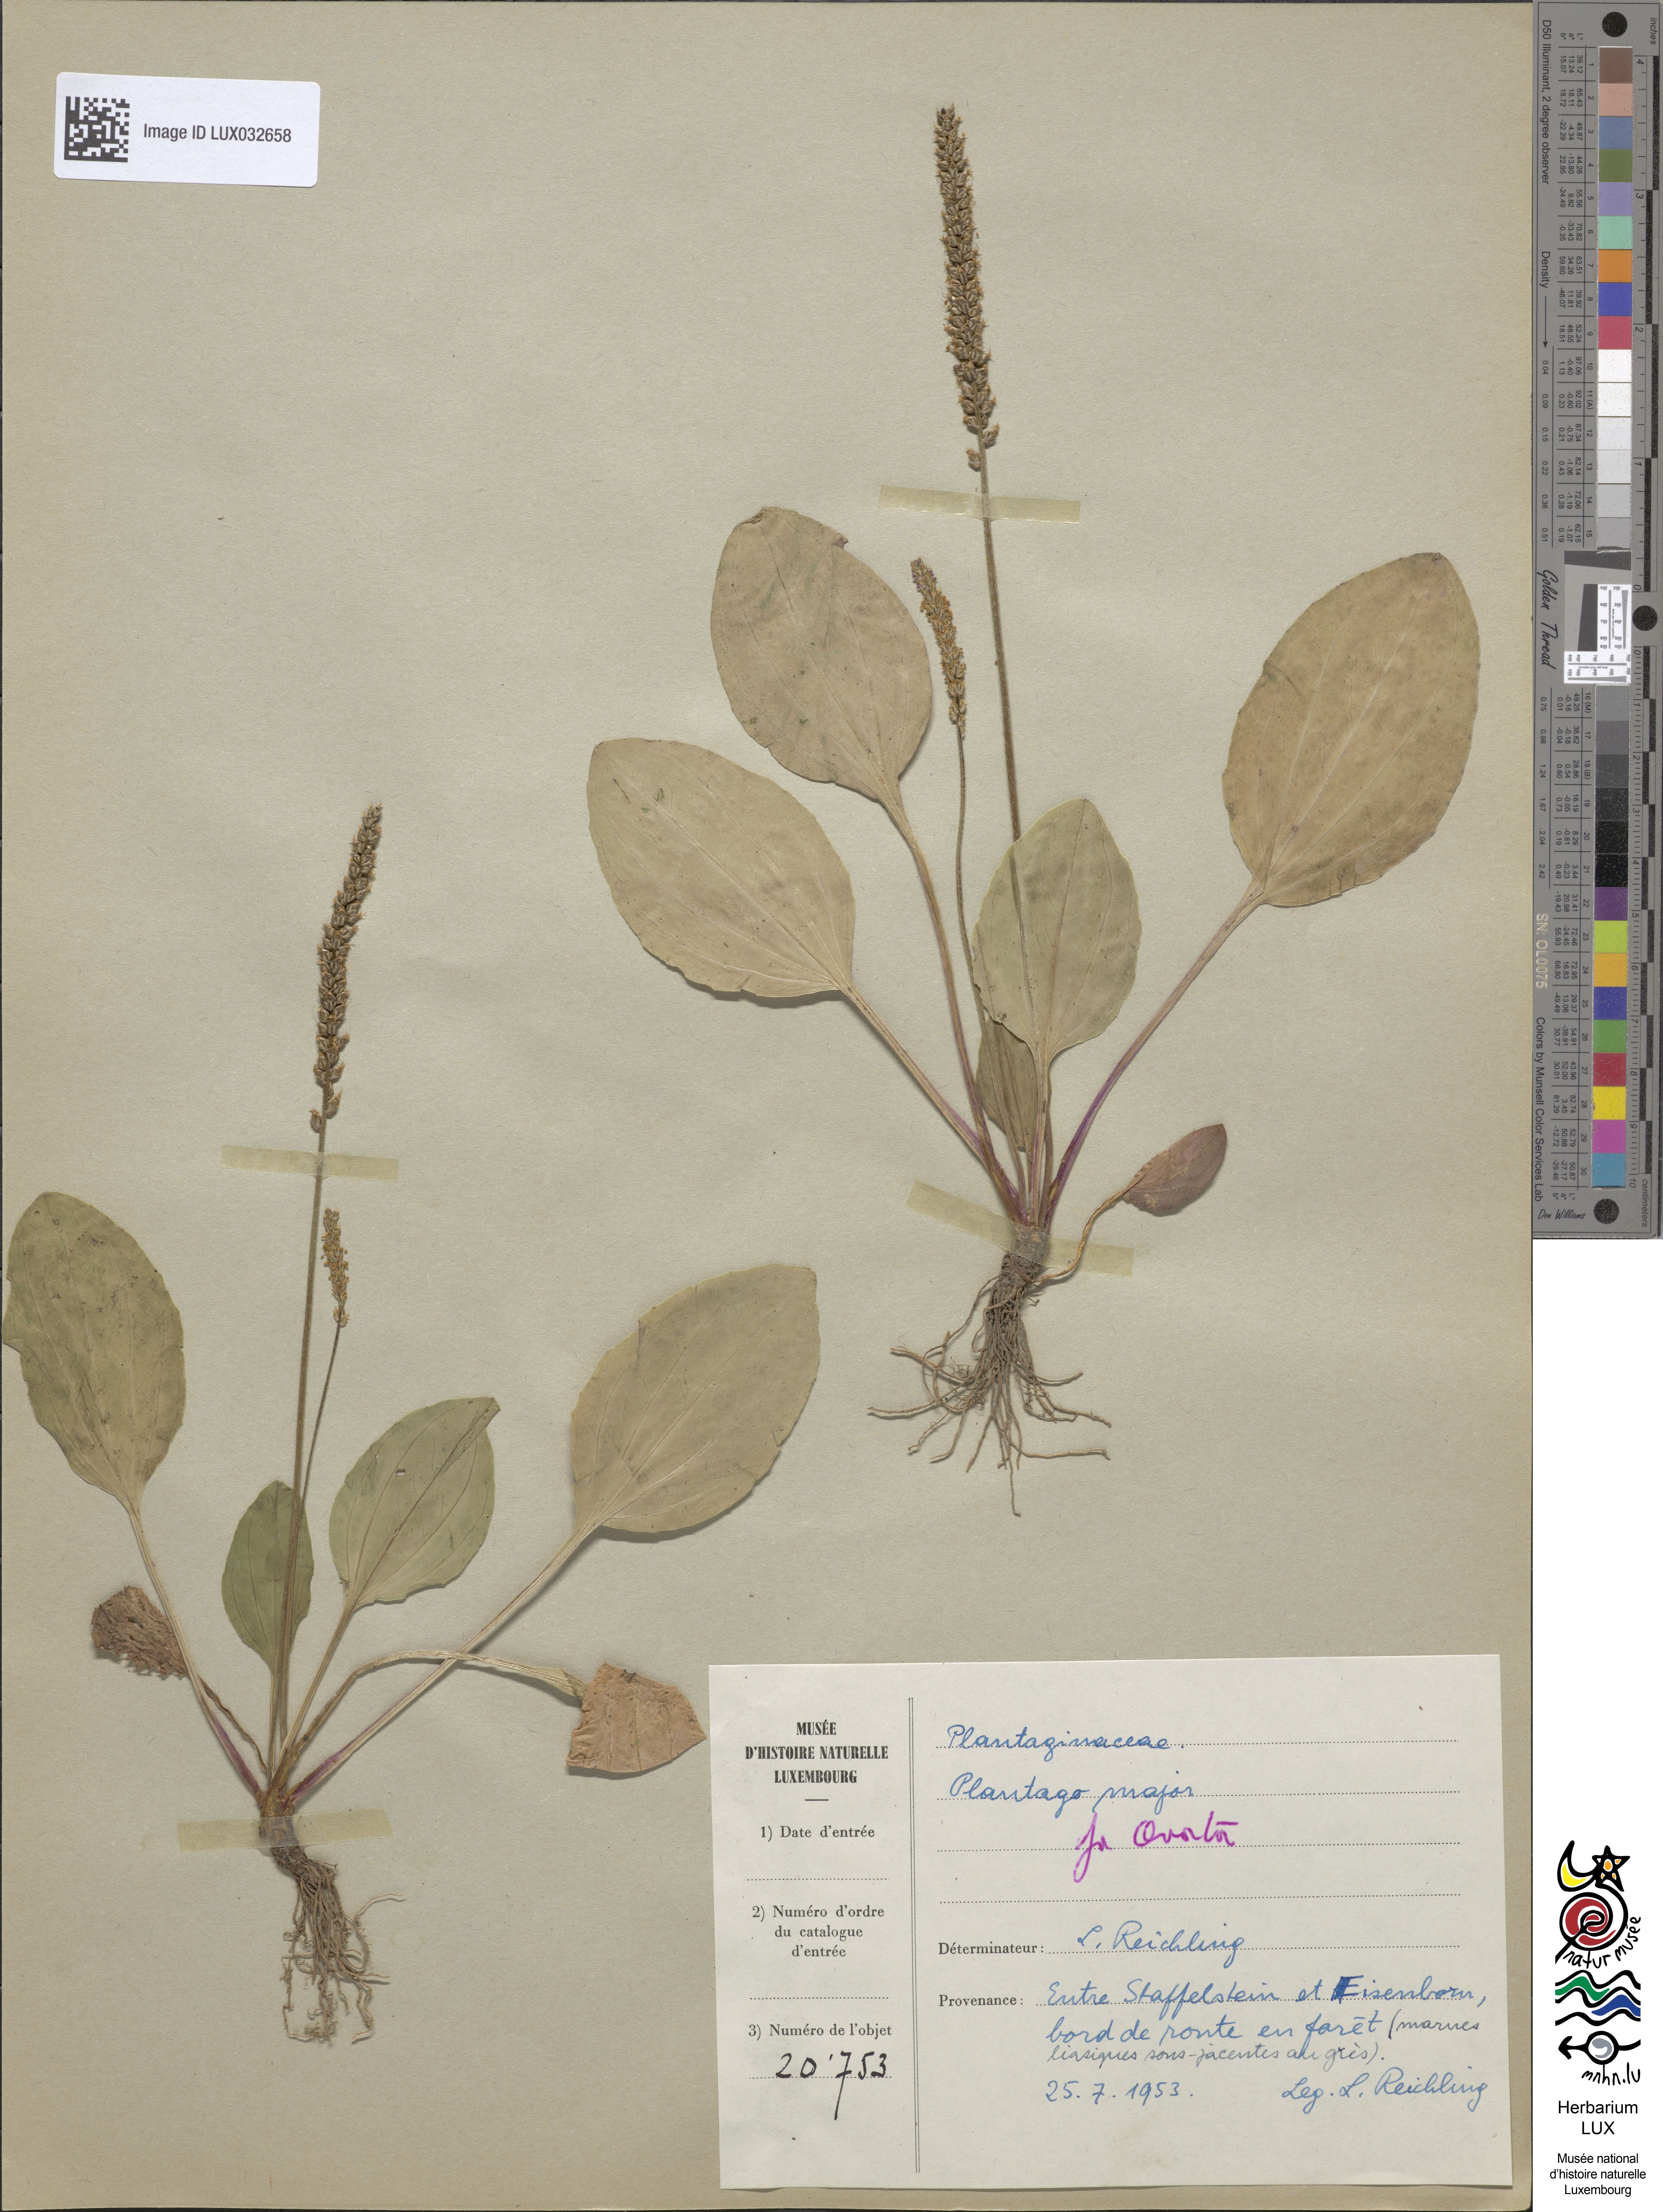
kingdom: Plantae
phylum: Tracheophyta
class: Magnoliopsida
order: Lamiales
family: Plantaginaceae
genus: Plantago
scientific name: Plantago major
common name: Common plantain
